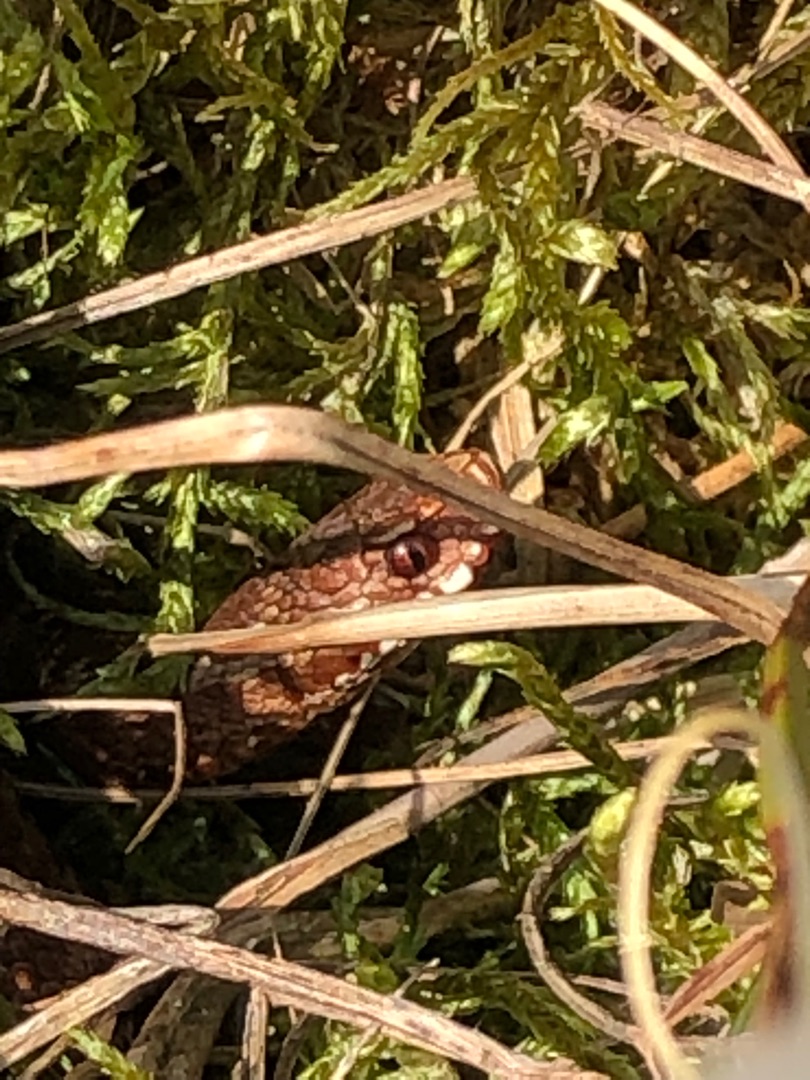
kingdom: Animalia
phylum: Chordata
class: Squamata
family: Viperidae
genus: Vipera
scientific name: Vipera berus
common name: Hugorm
